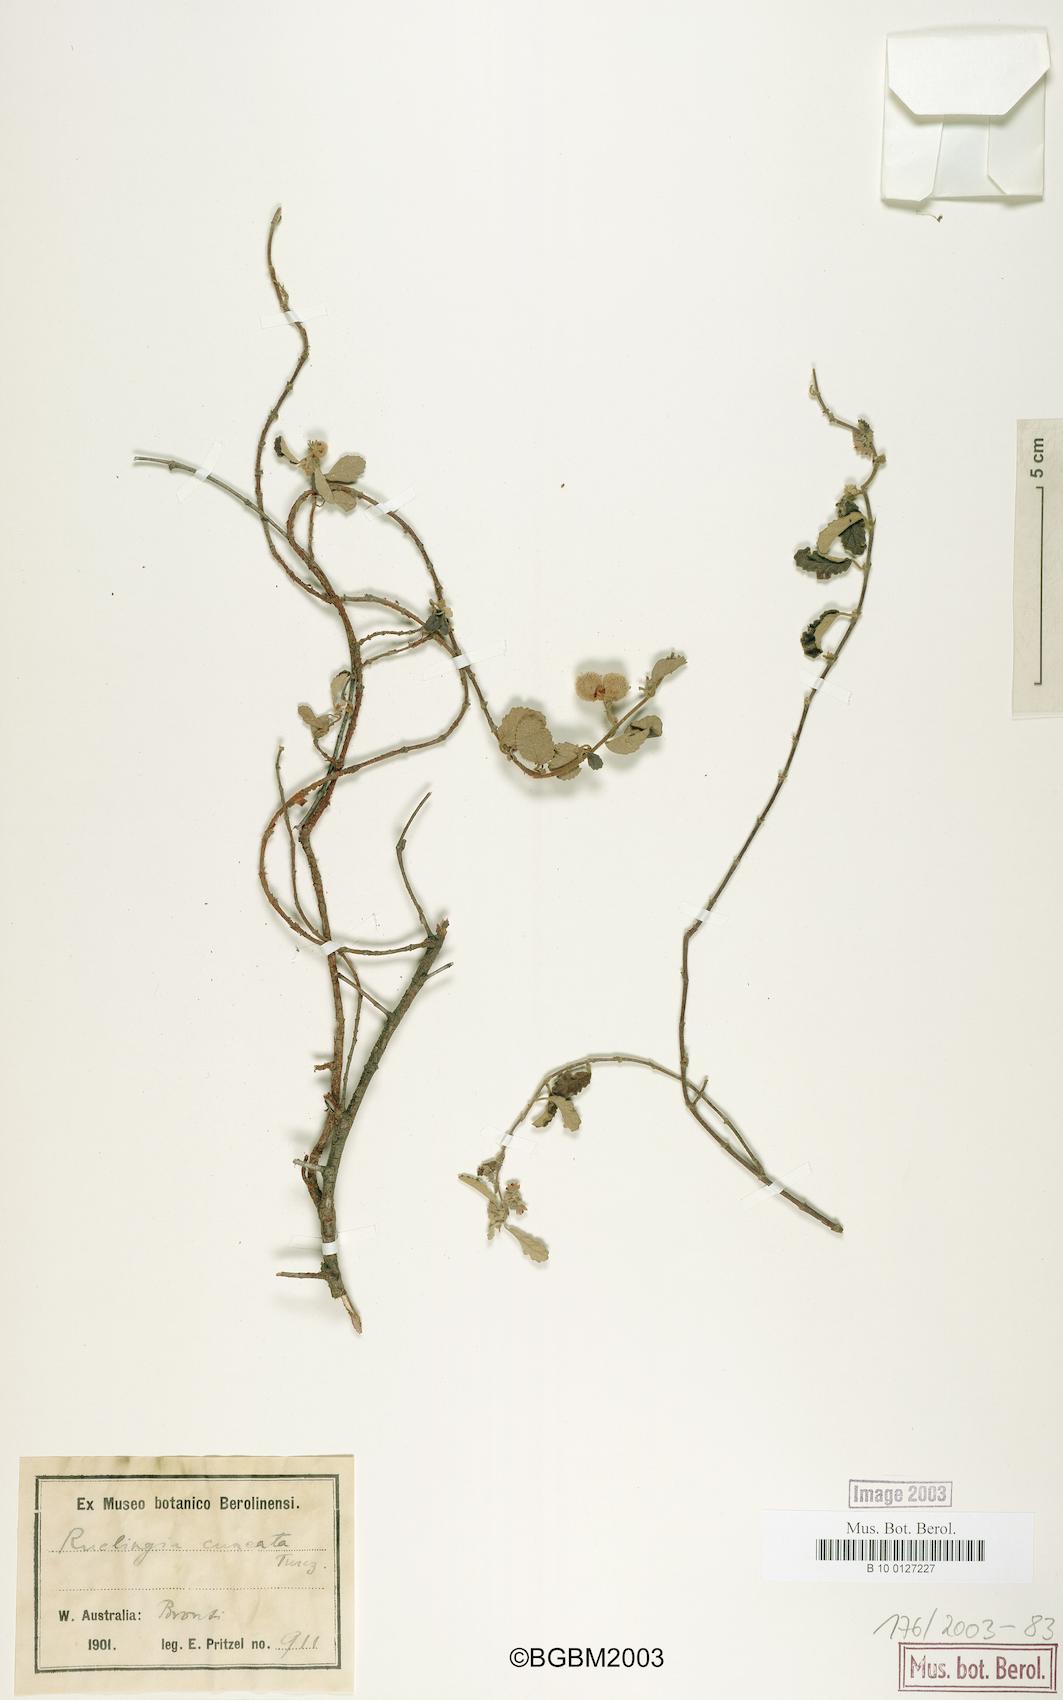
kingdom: Plantae
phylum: Tracheophyta
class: Magnoliopsida
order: Malvales
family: Malvaceae
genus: Androcalva
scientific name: Androcalva cuneata
